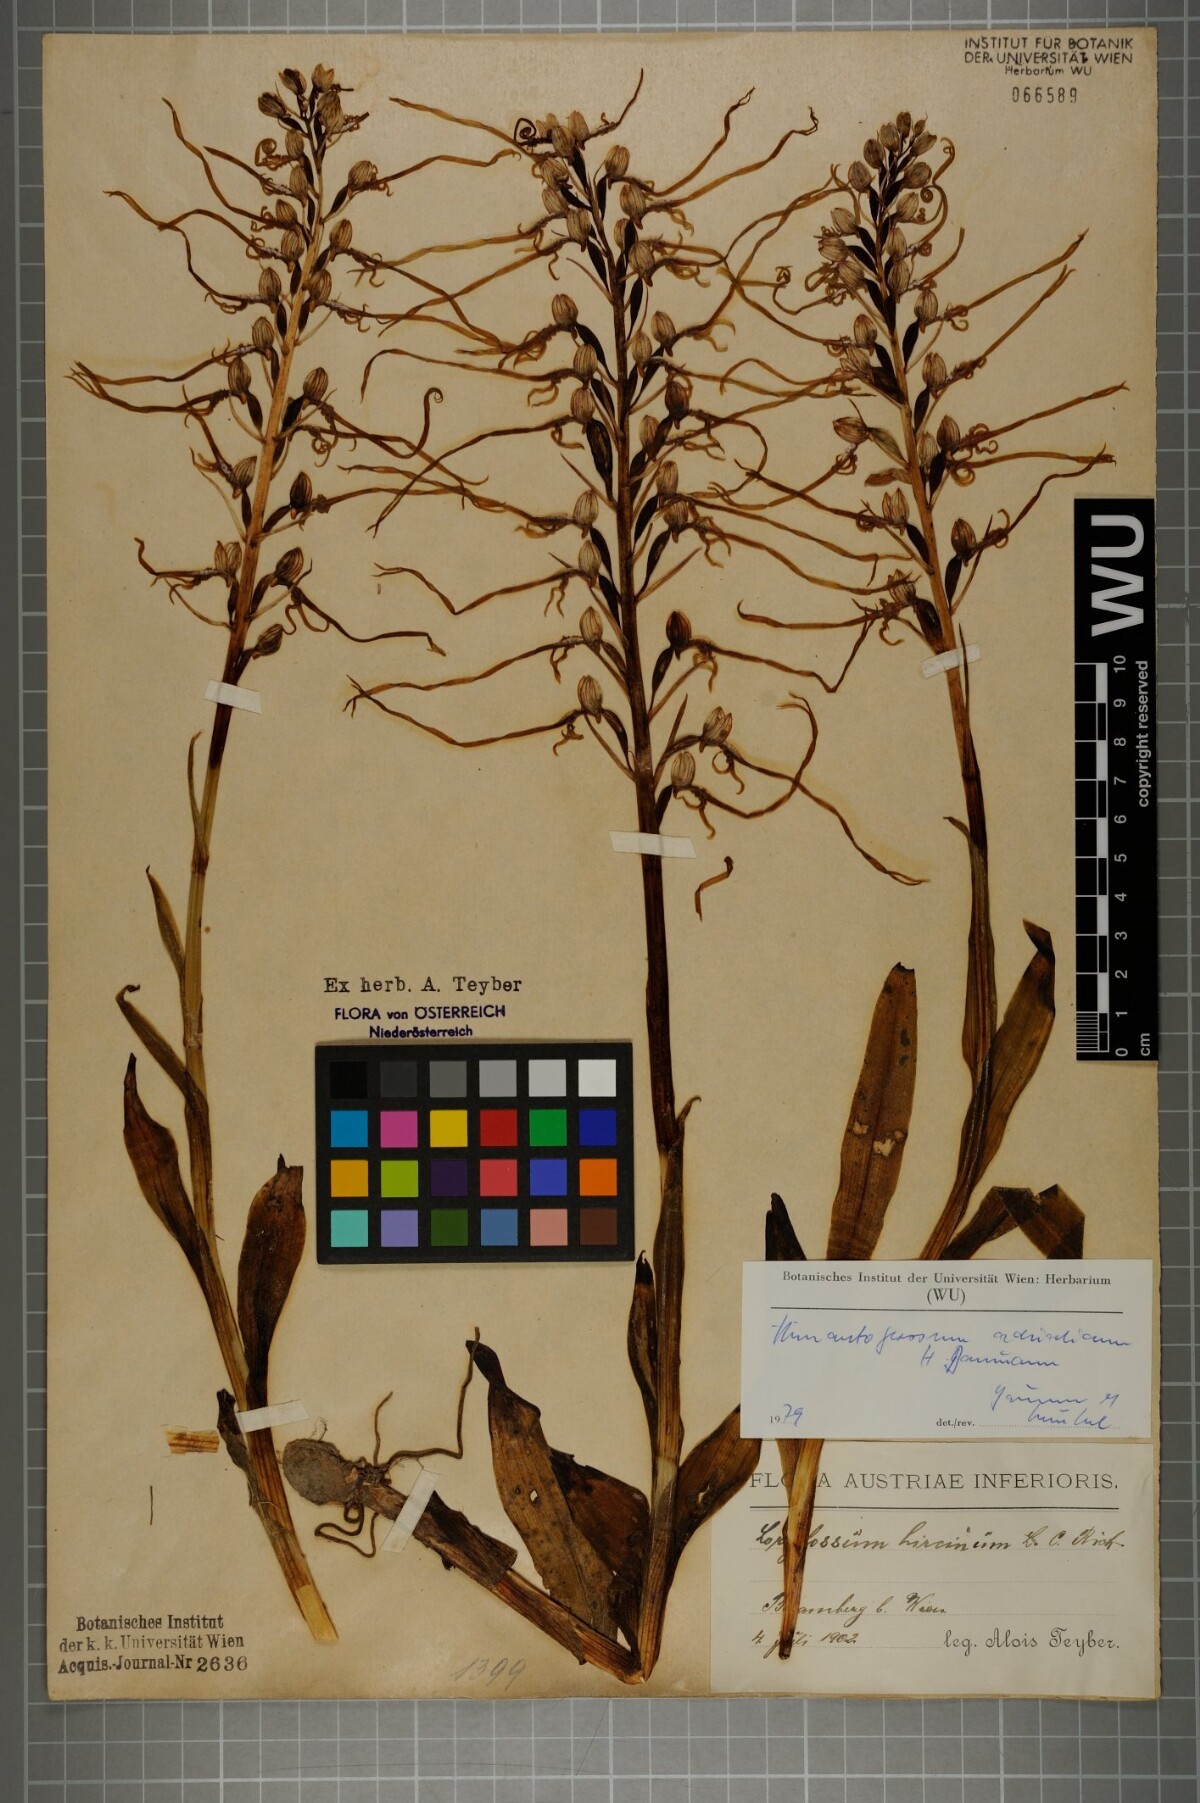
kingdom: Plantae
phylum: Tracheophyta
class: Liliopsida
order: Asparagales
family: Orchidaceae
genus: Himantoglossum
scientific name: Himantoglossum adriaticum
